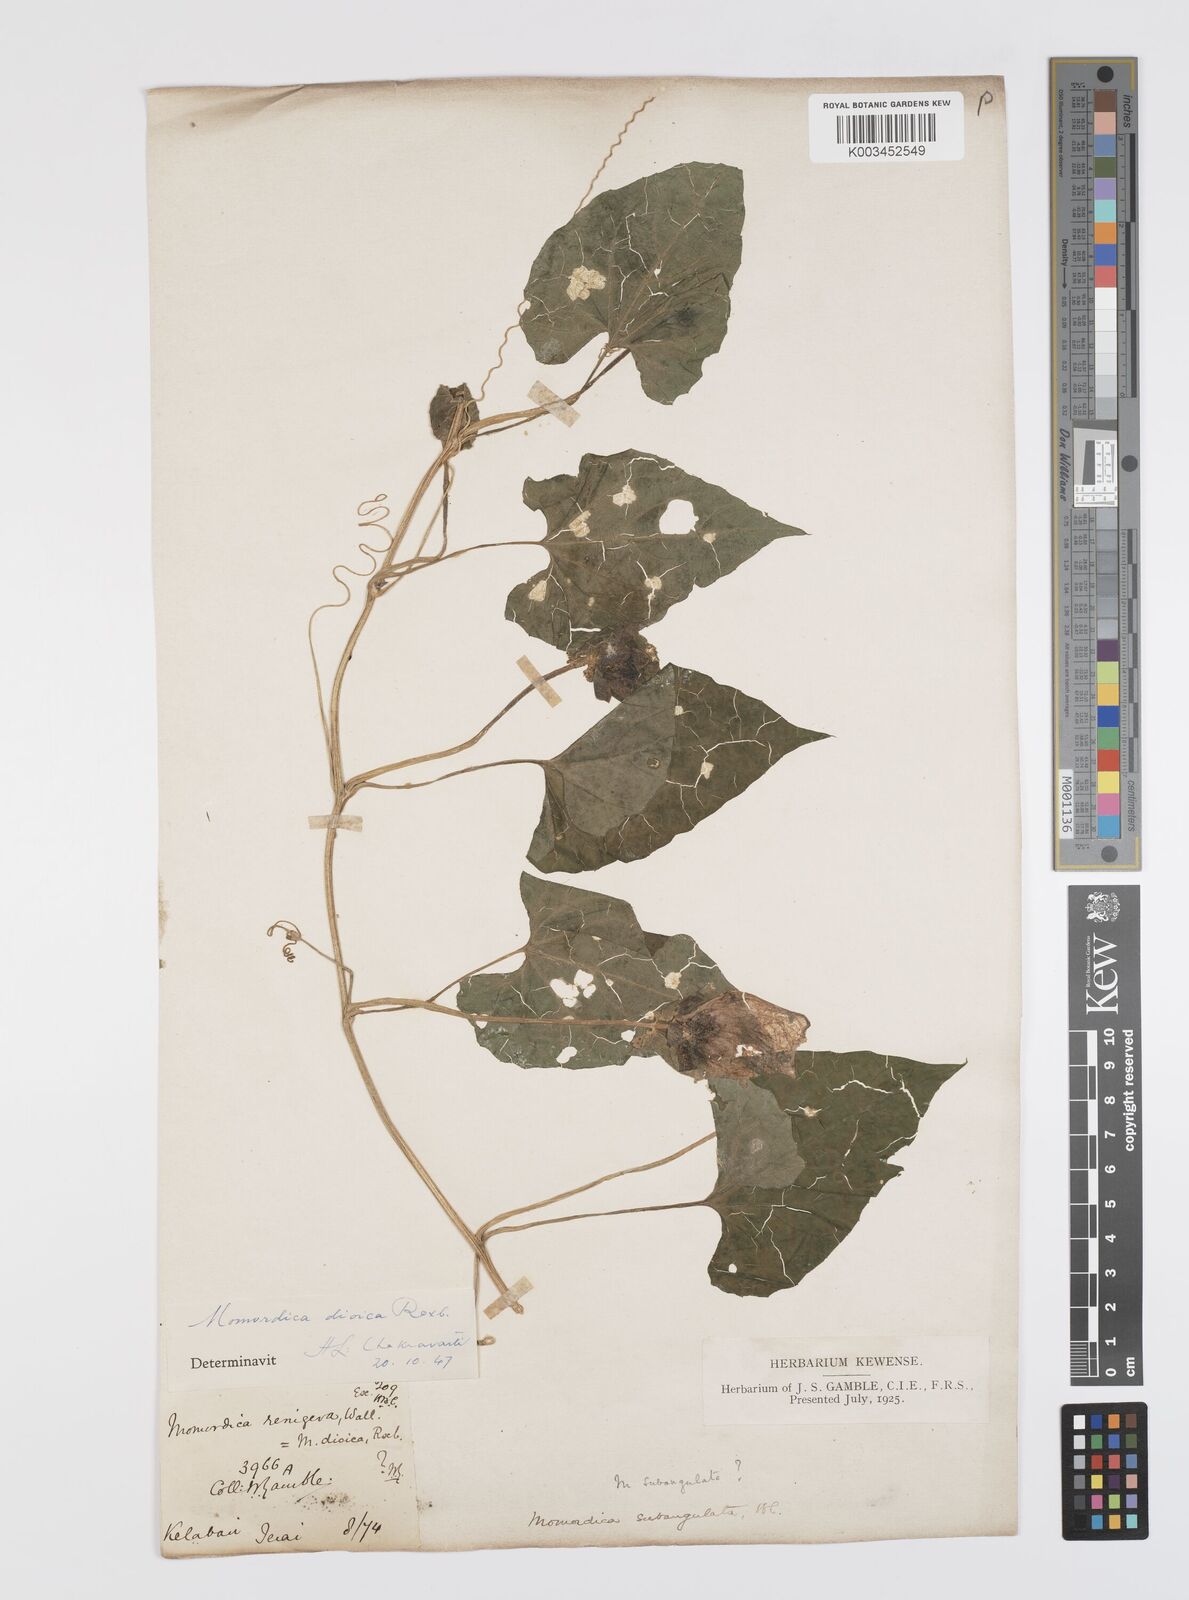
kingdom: Plantae
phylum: Tracheophyta
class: Magnoliopsida
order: Cucurbitales
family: Cucurbitaceae
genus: Momordica
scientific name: Momordica dioica
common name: Spine gourd
